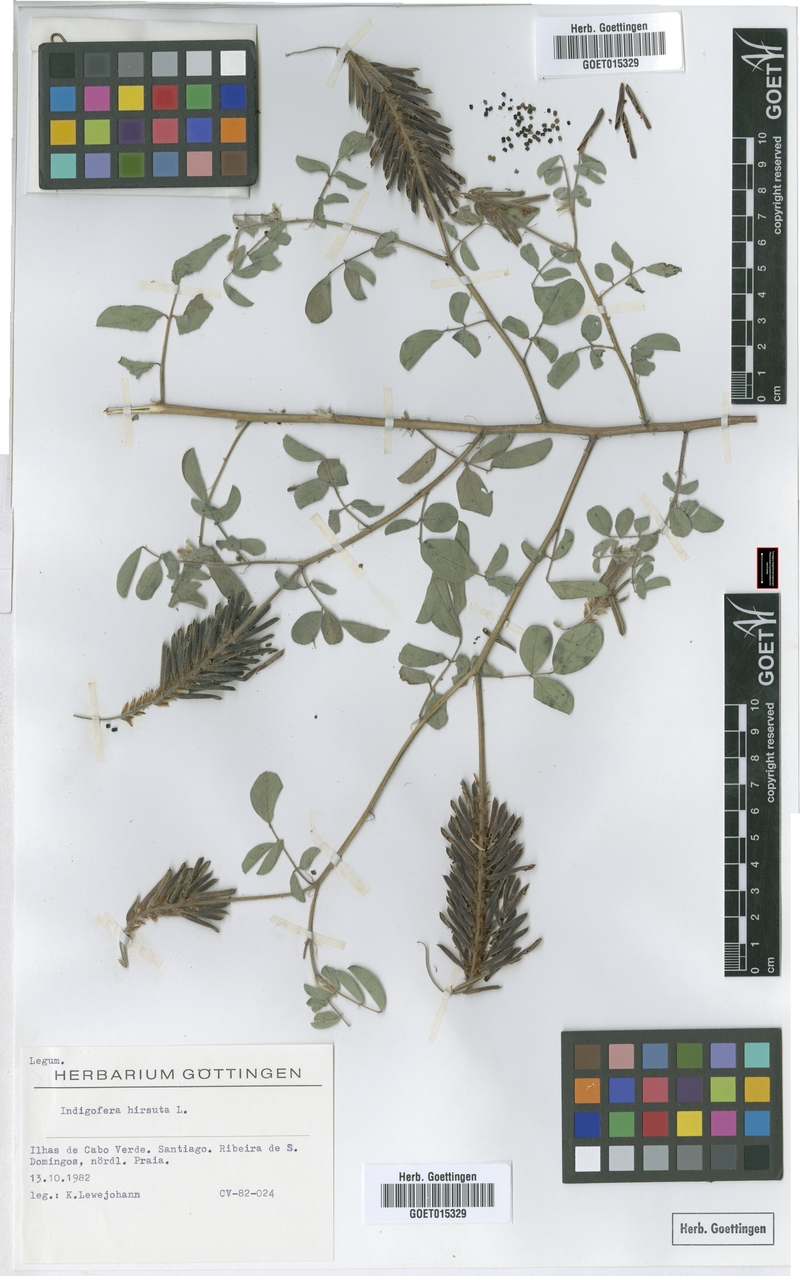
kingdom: Plantae
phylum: Tracheophyta
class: Magnoliopsida
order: Fabales
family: Fabaceae
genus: Indigofera
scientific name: Indigofera hirsuta
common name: Hairy indigo
